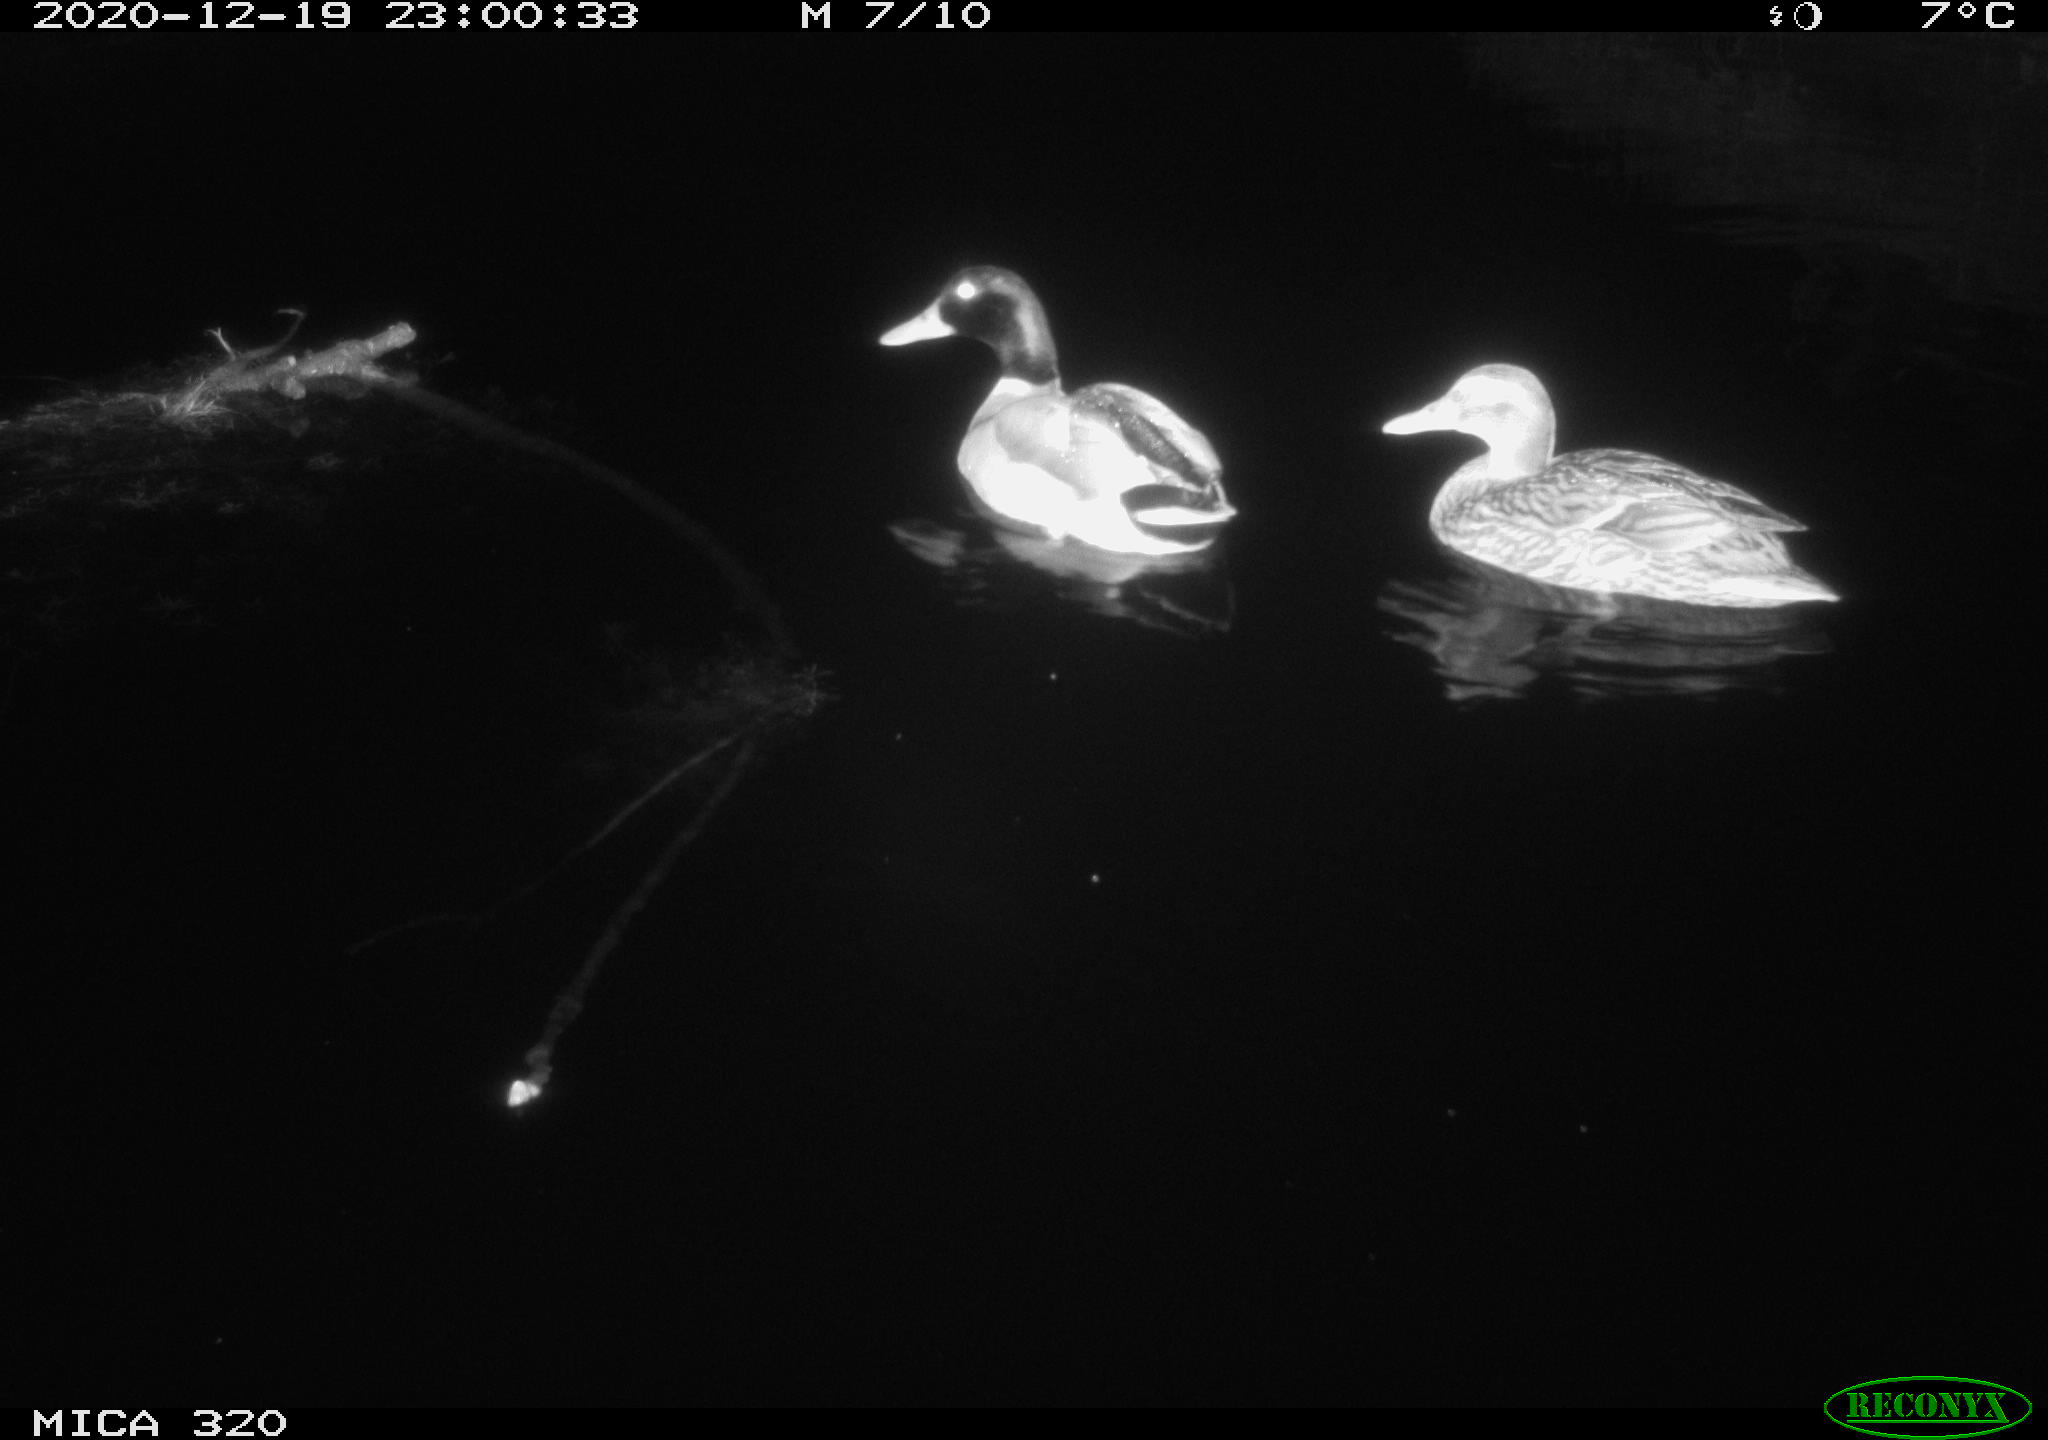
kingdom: Animalia
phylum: Chordata
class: Aves
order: Anseriformes
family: Anatidae
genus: Anas
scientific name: Anas platyrhynchos
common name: Mallard
